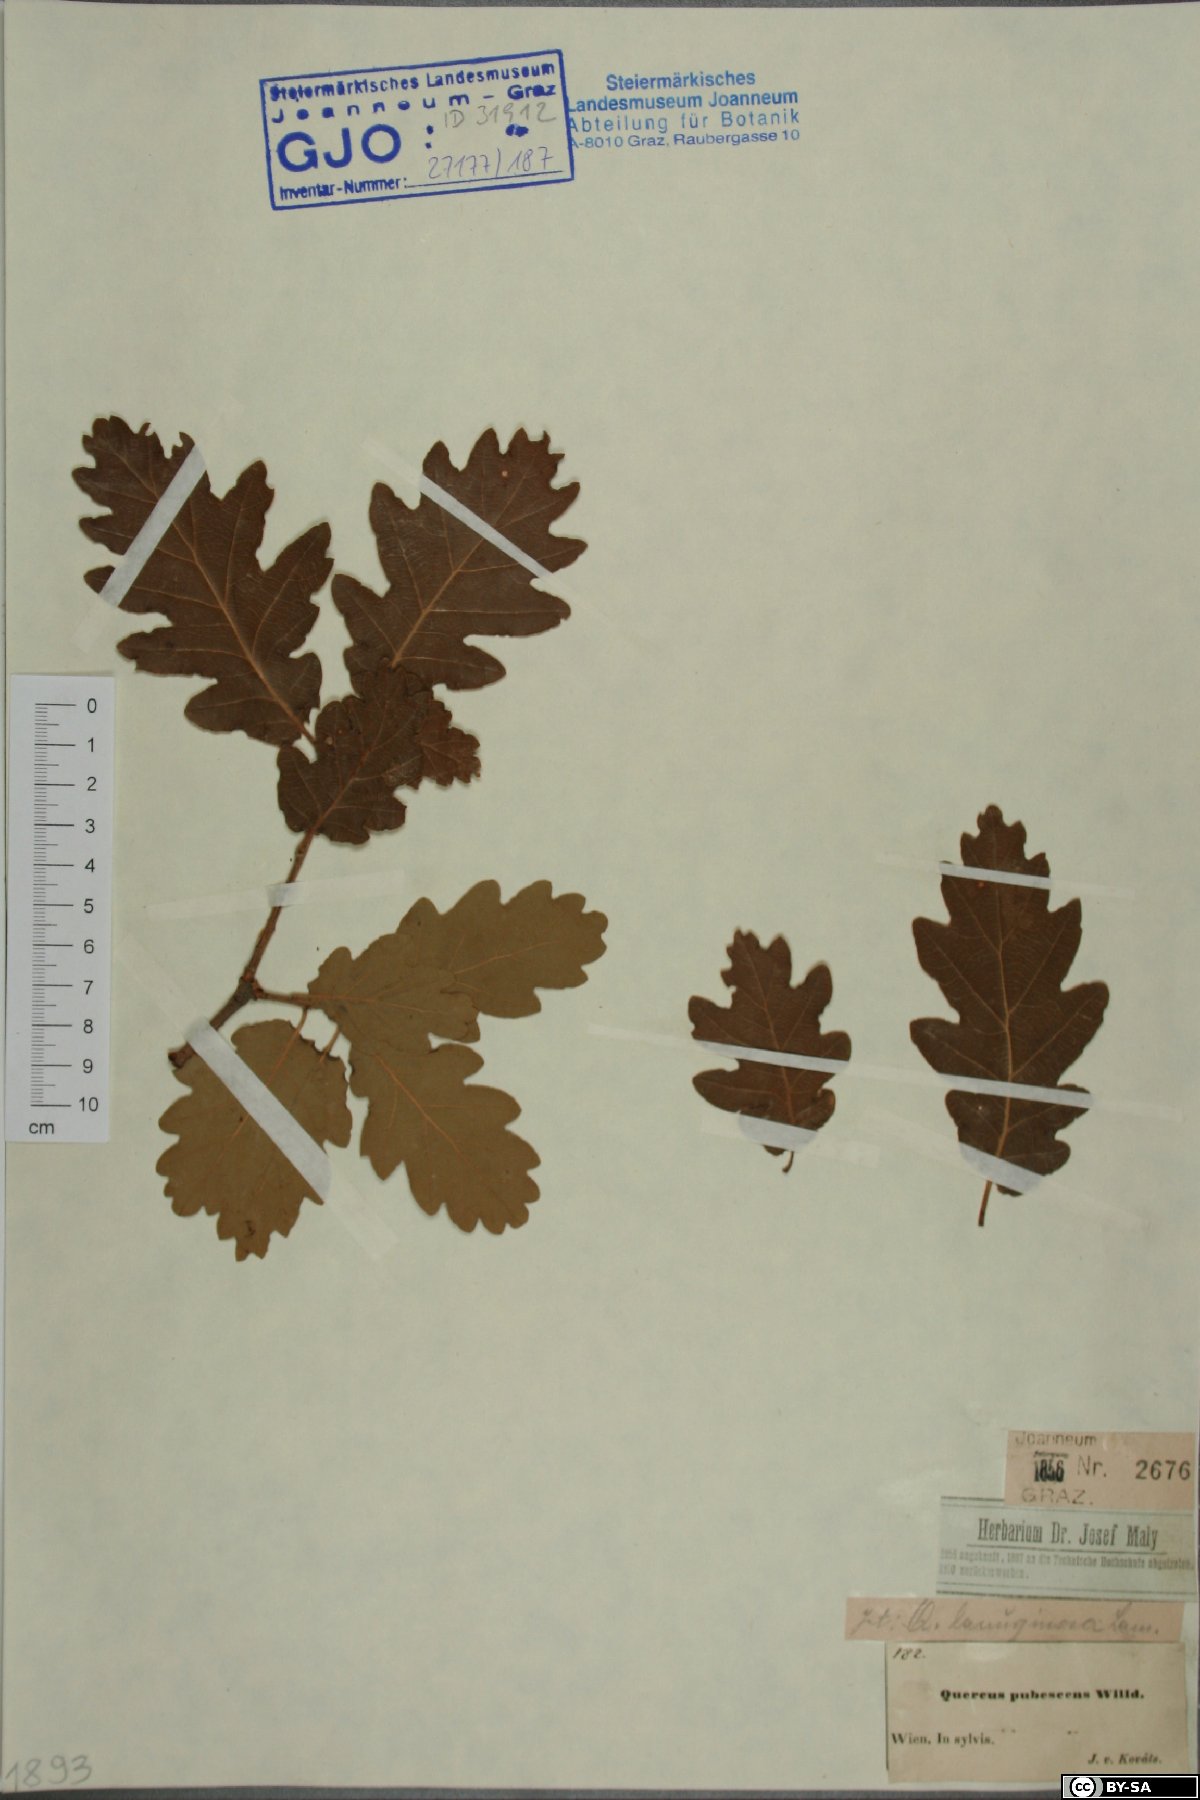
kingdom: Plantae
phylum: Tracheophyta
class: Magnoliopsida
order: Fagales
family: Fagaceae
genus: Quercus
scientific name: Quercus pubescens
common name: Downy oak
